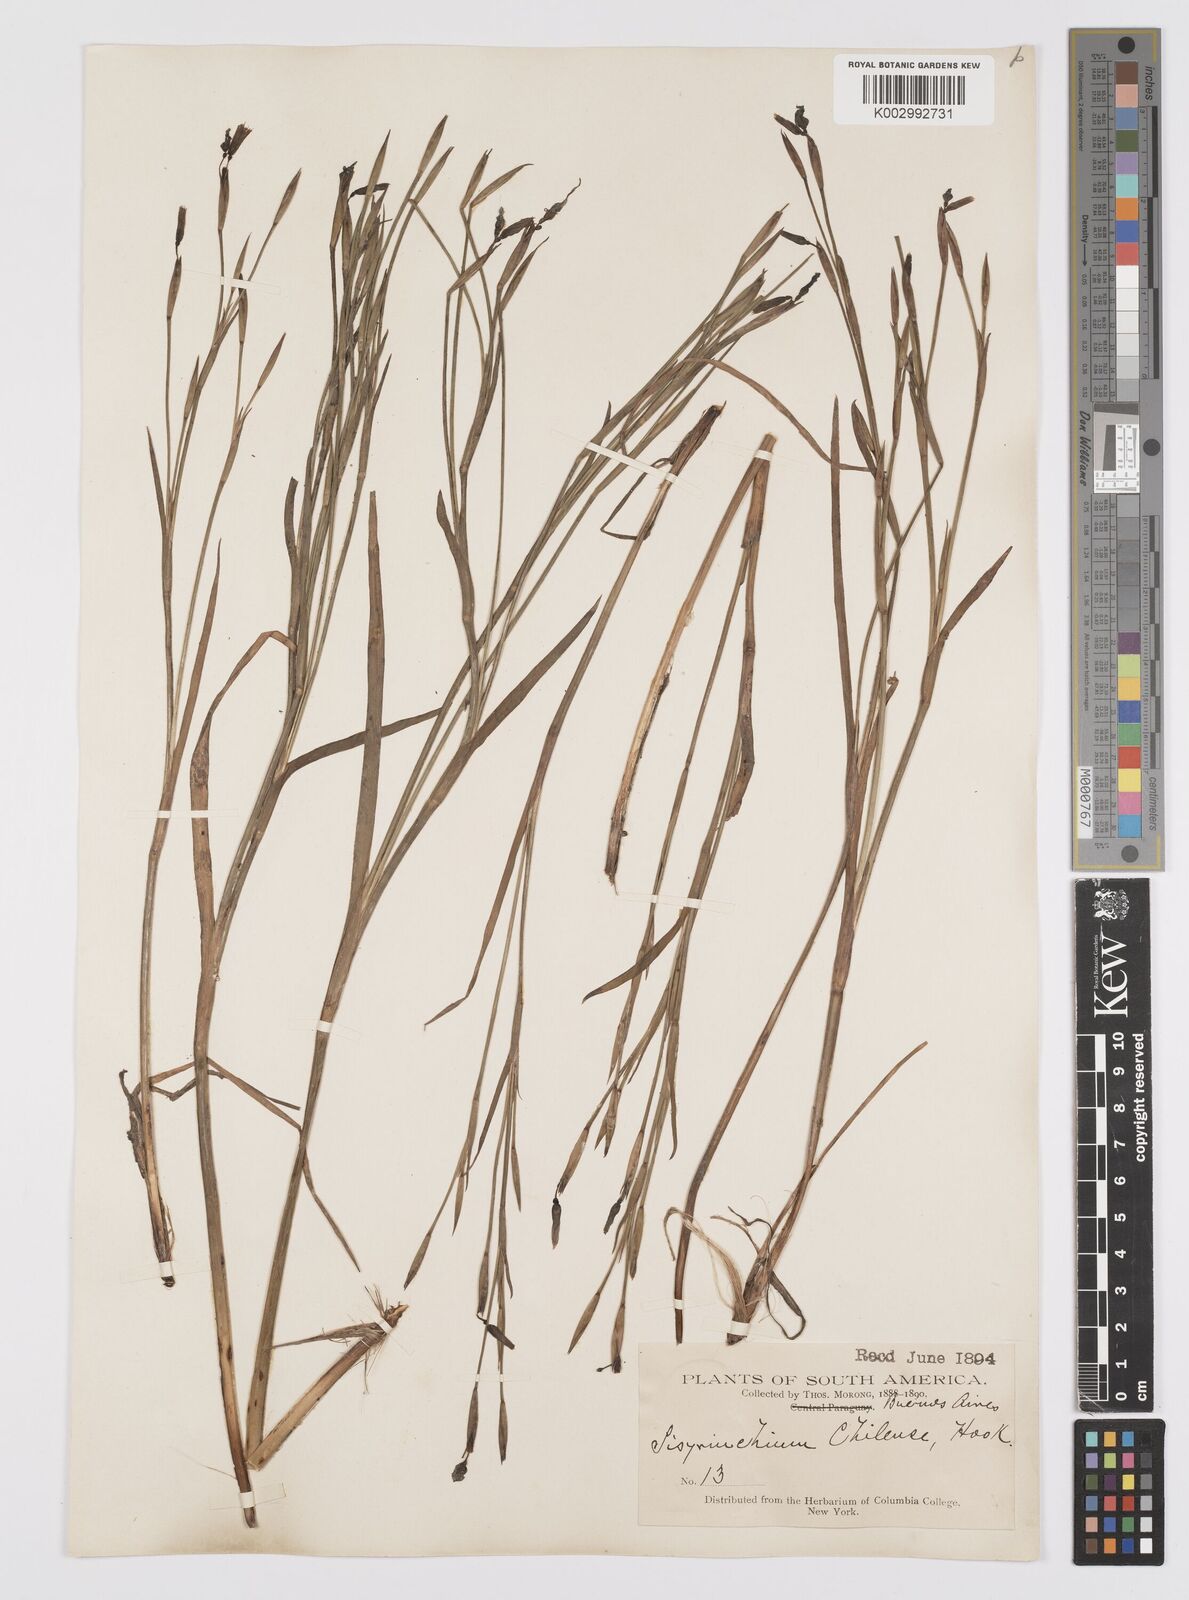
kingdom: Plantae
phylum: Tracheophyta
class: Liliopsida
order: Asparagales
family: Iridaceae
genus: Sisyrinchium
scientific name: Sisyrinchium chilense
